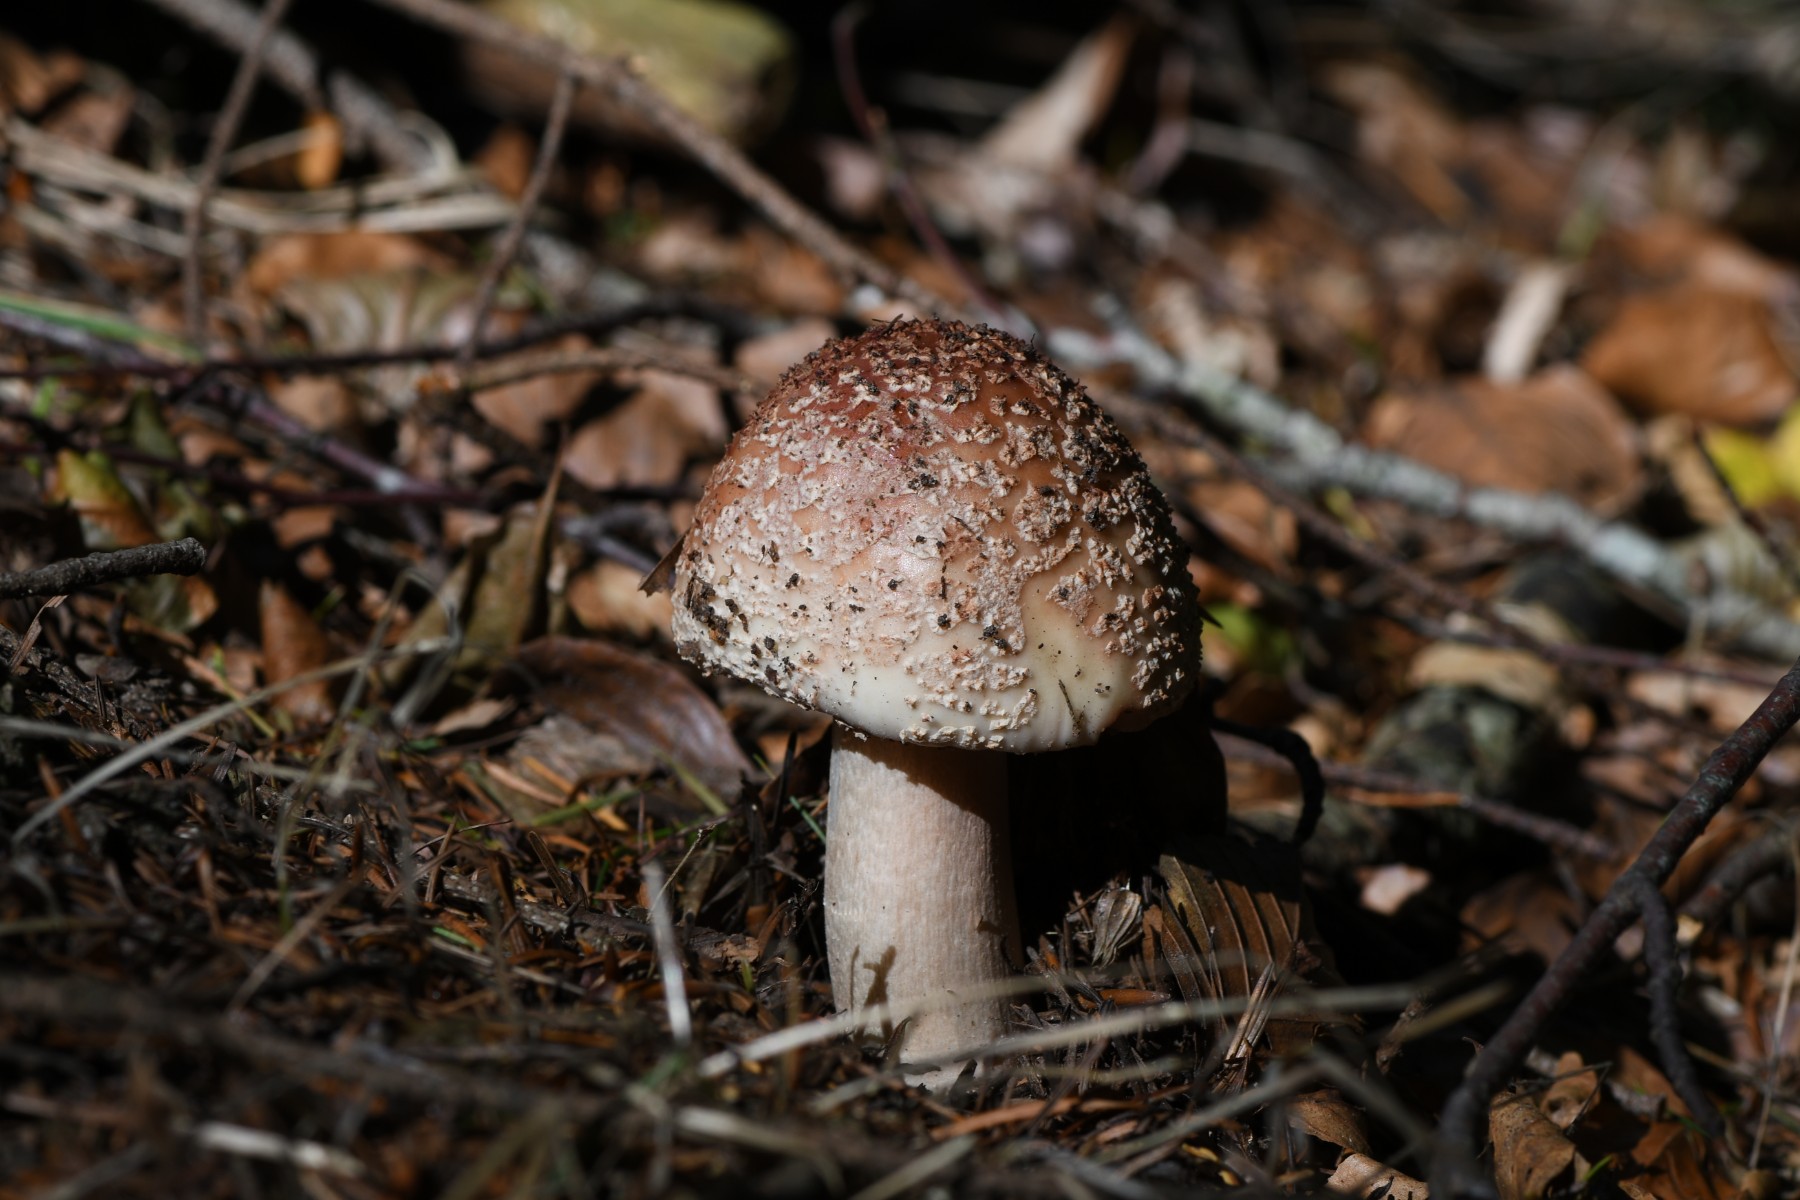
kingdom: Fungi
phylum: Basidiomycota
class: Agaricomycetes
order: Agaricales
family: Amanitaceae
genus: Amanita
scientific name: Amanita rubescens
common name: rødmende fluesvamp
